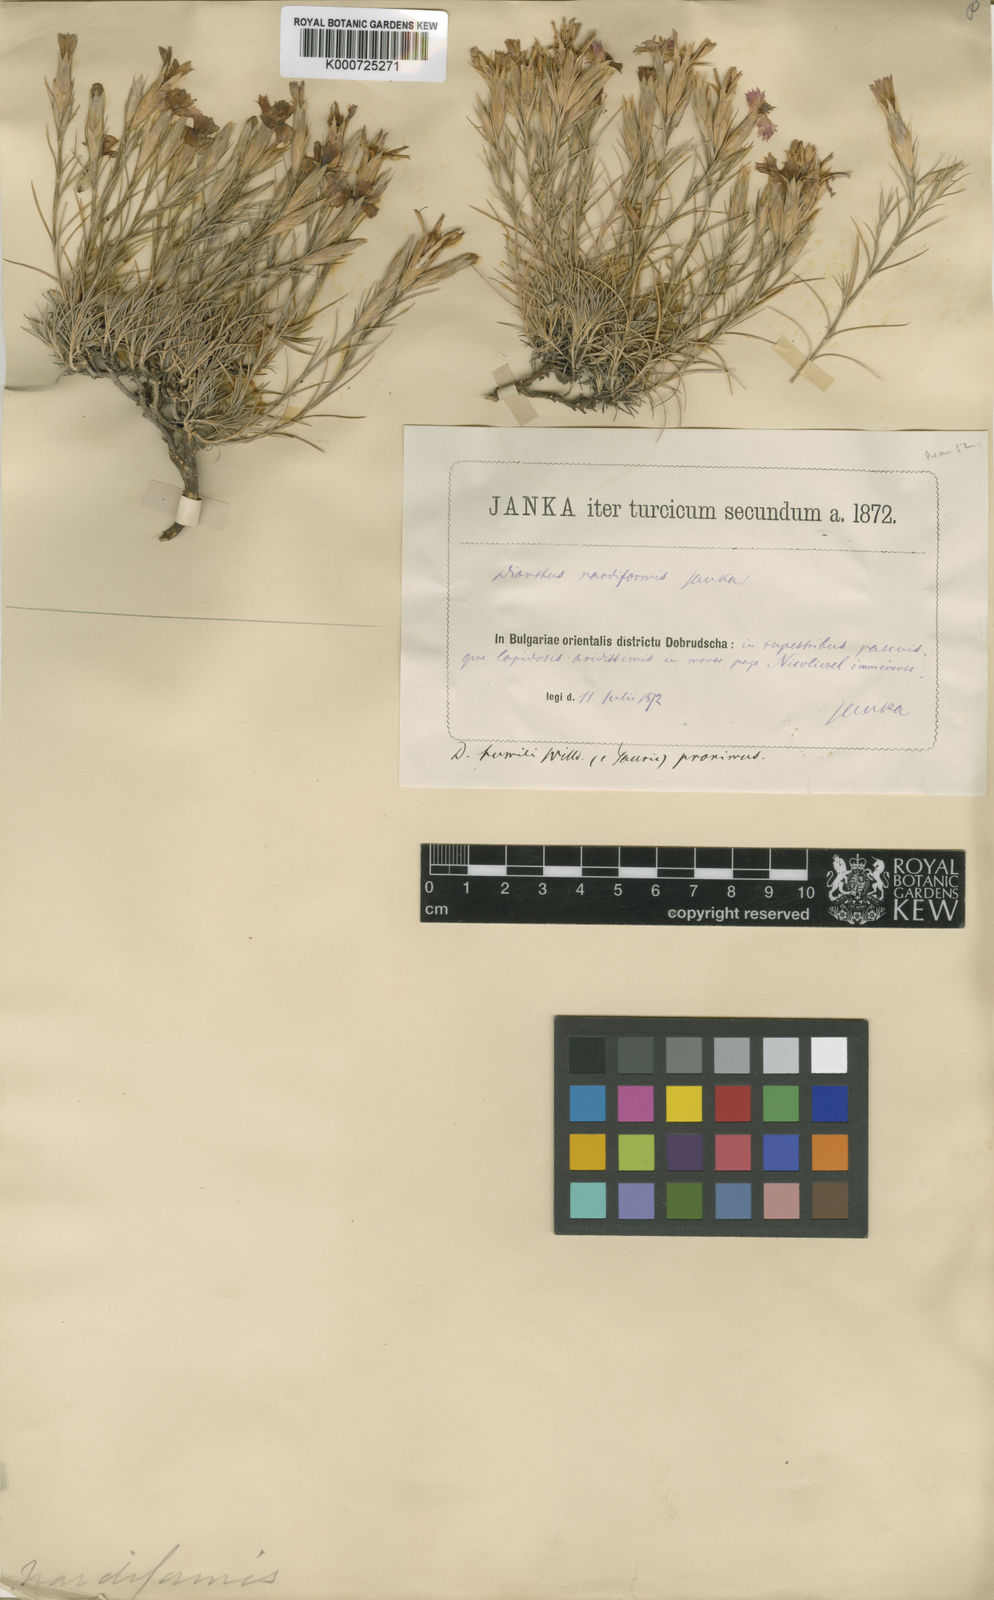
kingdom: Plantae
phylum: Tracheophyta
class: Magnoliopsida
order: Caryophyllales
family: Caryophyllaceae
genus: Dianthus
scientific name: Dianthus nardiformis
